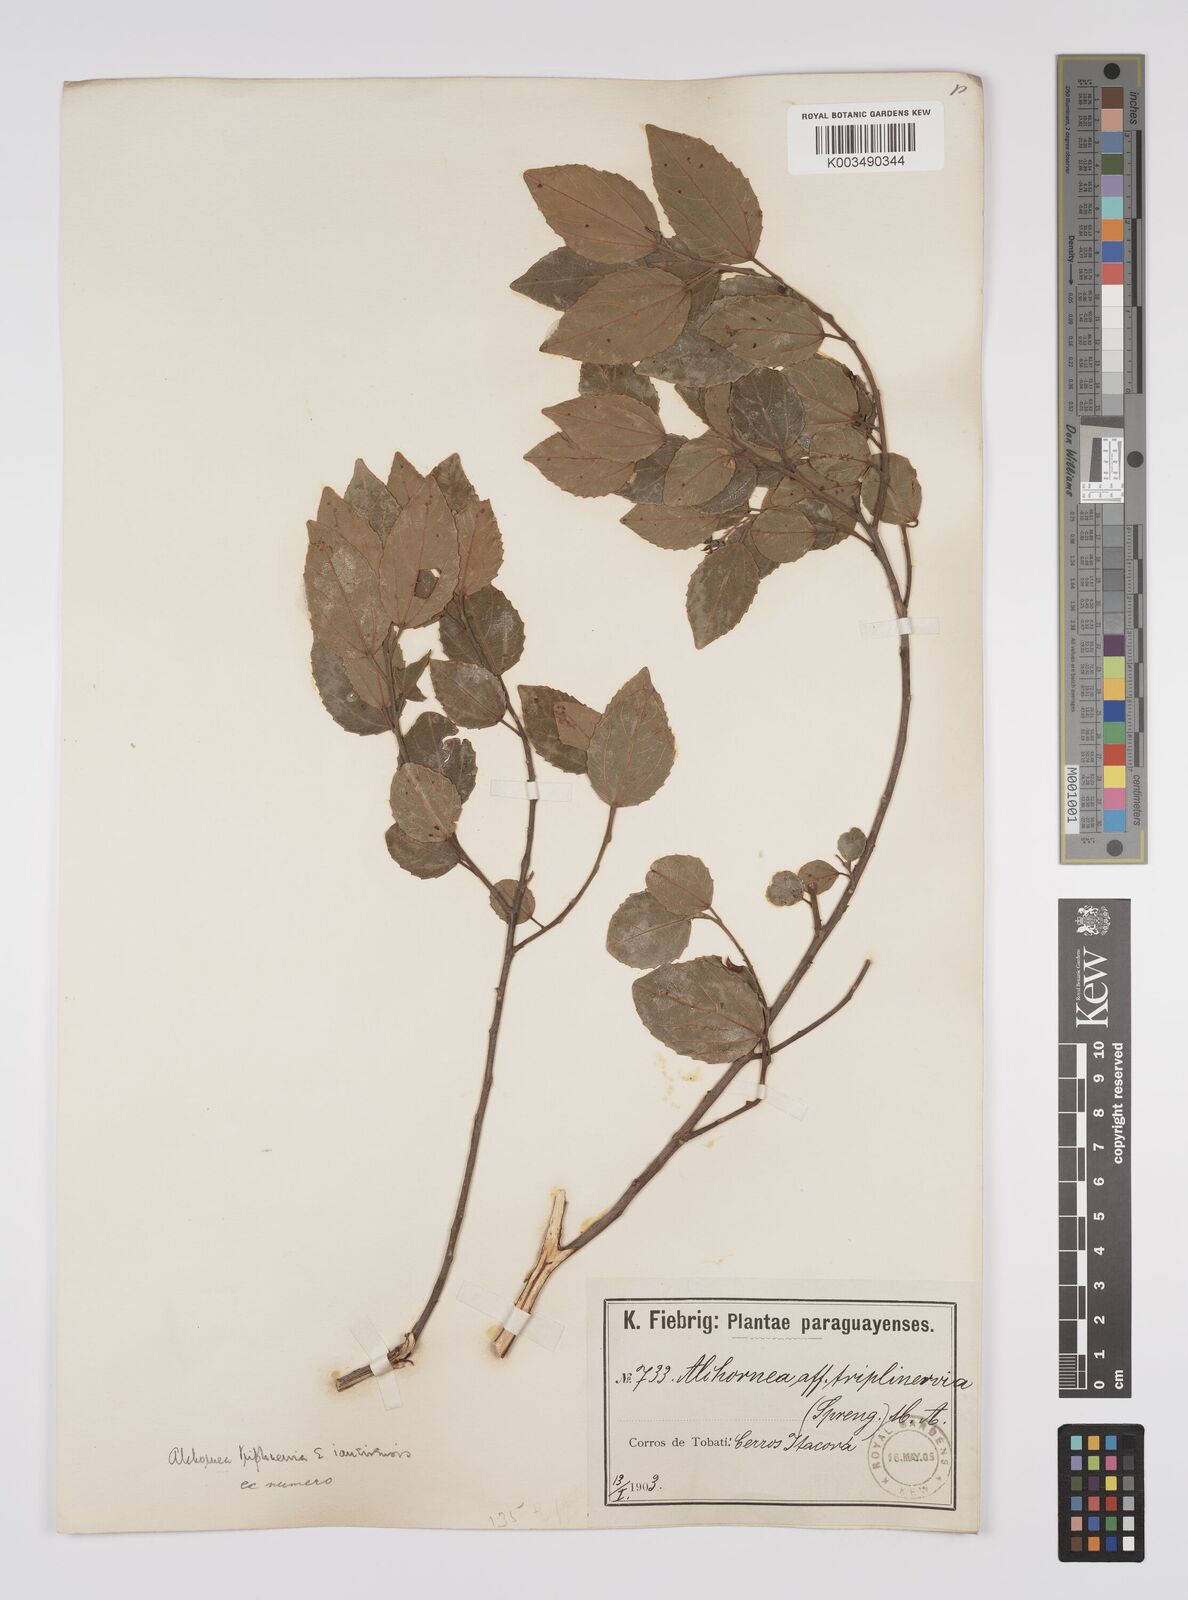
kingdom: Plantae
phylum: Tracheophyta
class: Magnoliopsida
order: Malpighiales
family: Euphorbiaceae
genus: Alchornea
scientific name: Alchornea triplinervia
